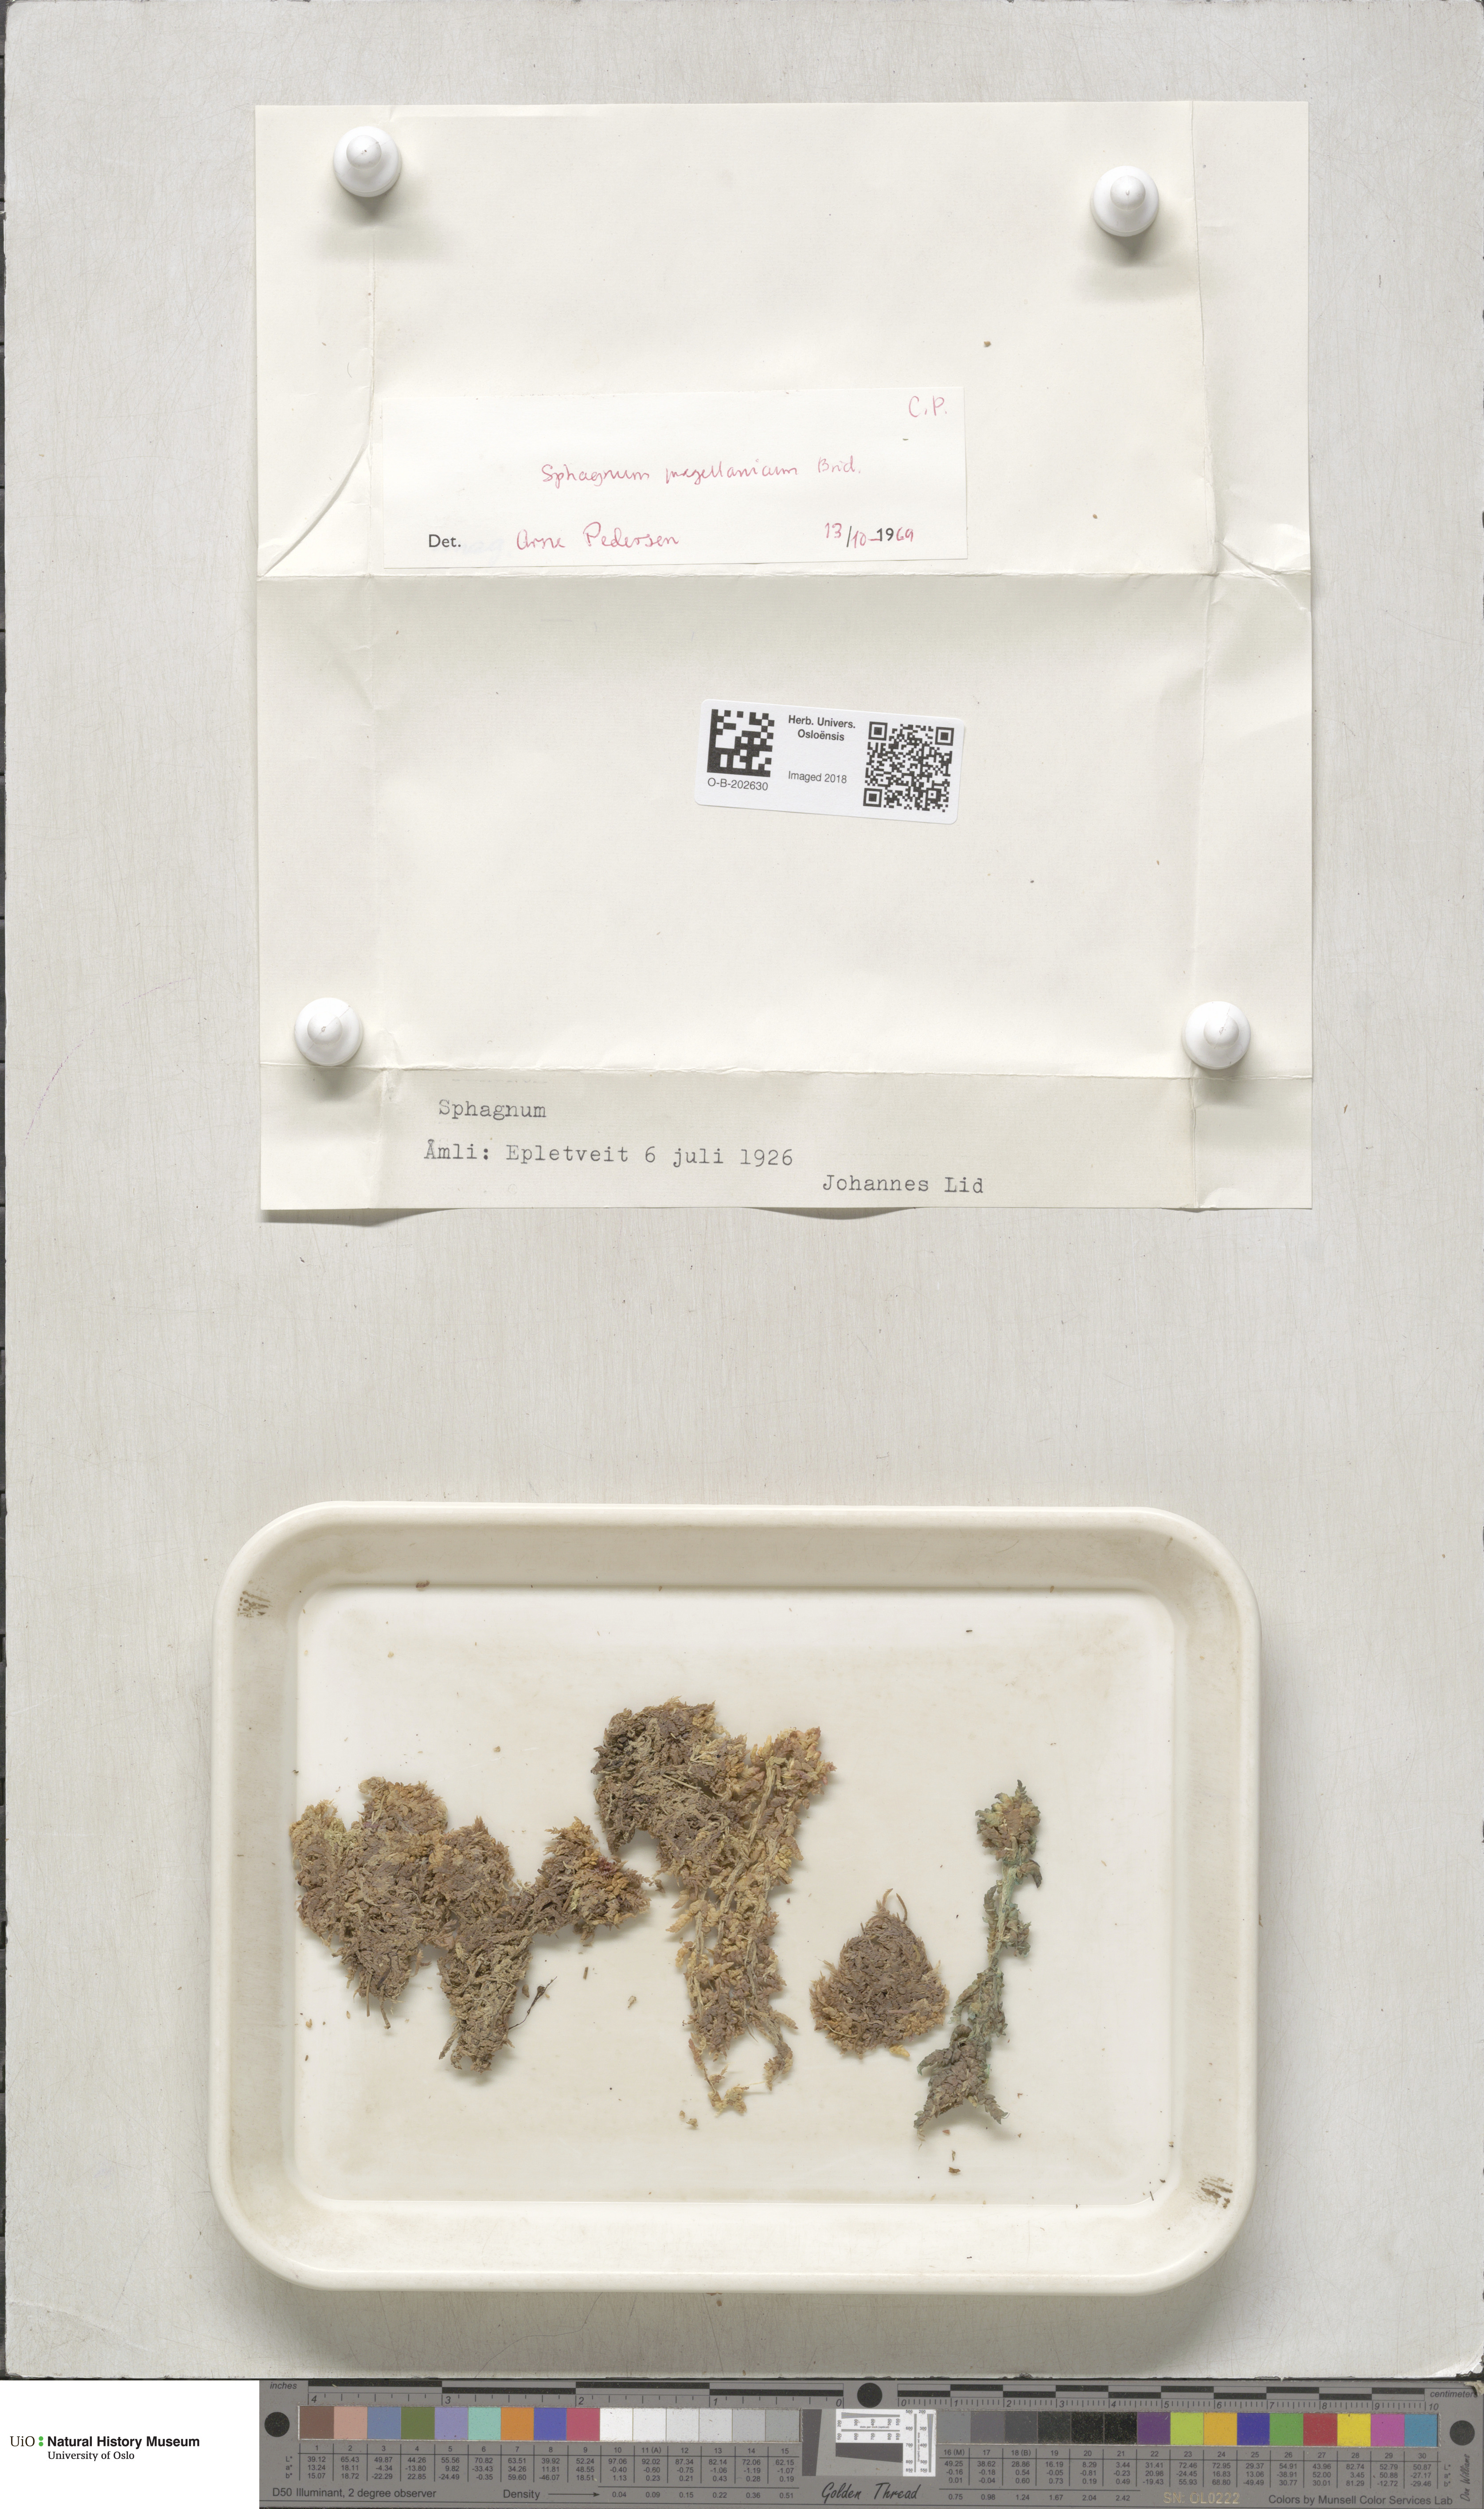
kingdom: Plantae
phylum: Bryophyta
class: Sphagnopsida
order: Sphagnales
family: Sphagnaceae
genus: Sphagnum
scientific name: Sphagnum magellanicum
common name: Magellan's peat moss
